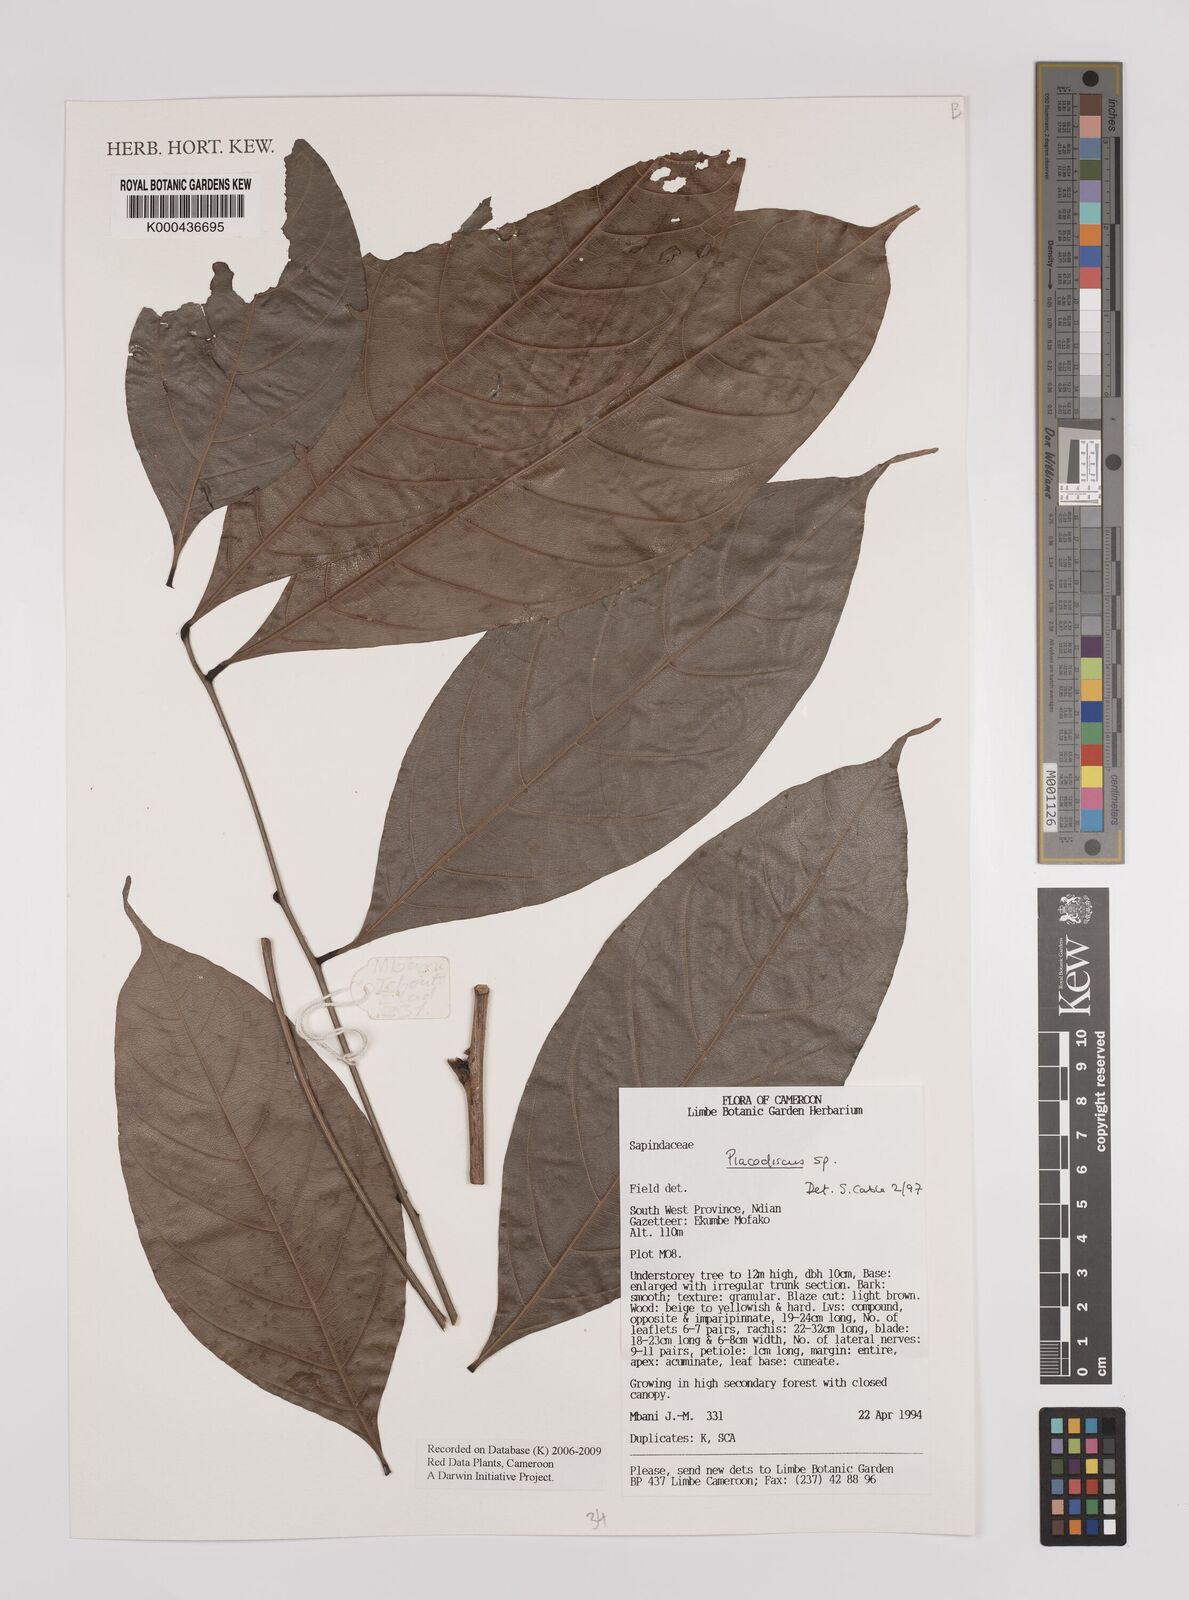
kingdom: Plantae
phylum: Tracheophyta
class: Magnoliopsida
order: Sapindales
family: Sapindaceae
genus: Placodiscus
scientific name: Placodiscus
